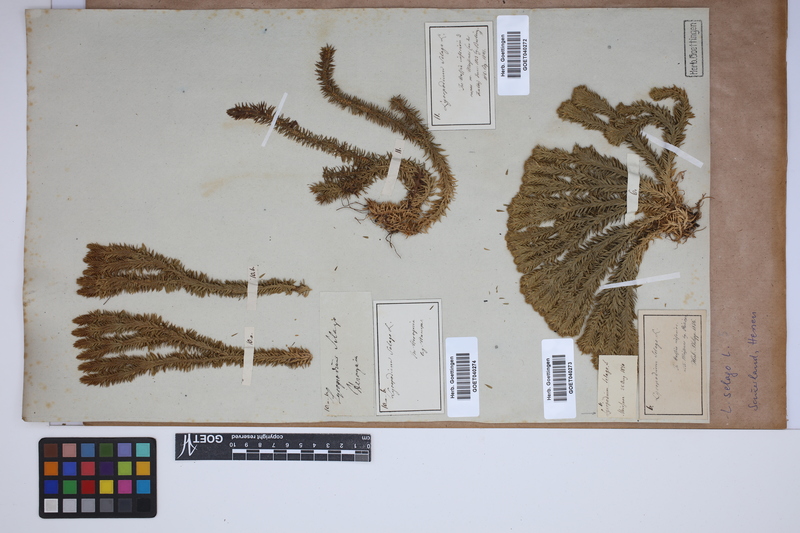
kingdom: Plantae
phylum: Tracheophyta
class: Lycopodiopsida
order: Lycopodiales
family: Lycopodiaceae
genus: Huperzia
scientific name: Huperzia selago
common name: Northern firmoss
